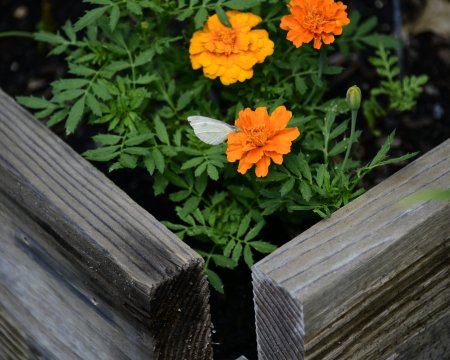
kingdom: Animalia
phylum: Arthropoda
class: Insecta
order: Lepidoptera
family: Pieridae
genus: Pieris
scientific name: Pieris rapae
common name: Cabbage White
